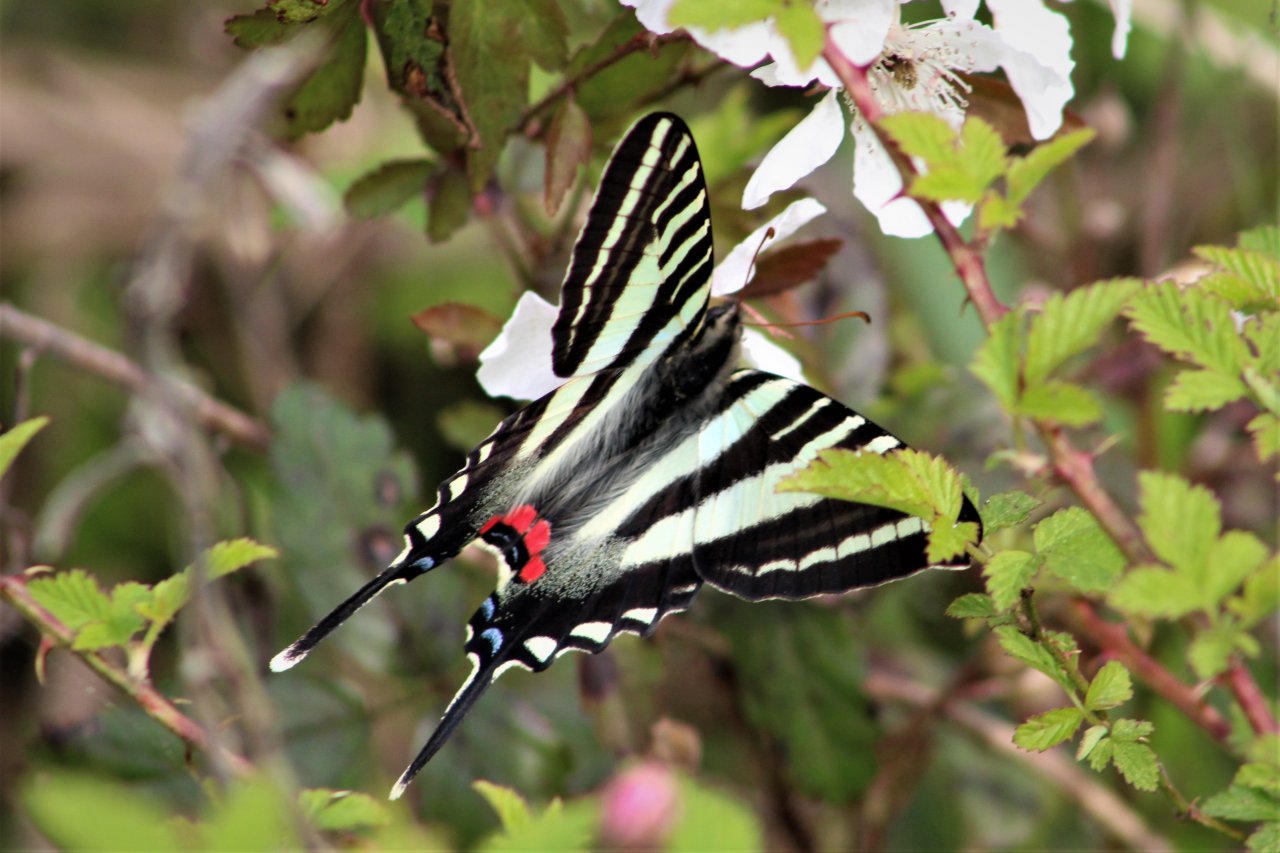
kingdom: Animalia
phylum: Arthropoda
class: Insecta
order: Lepidoptera
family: Papilionidae
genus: Protographium
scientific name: Protographium marcellus
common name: Zebra Swallowtail
